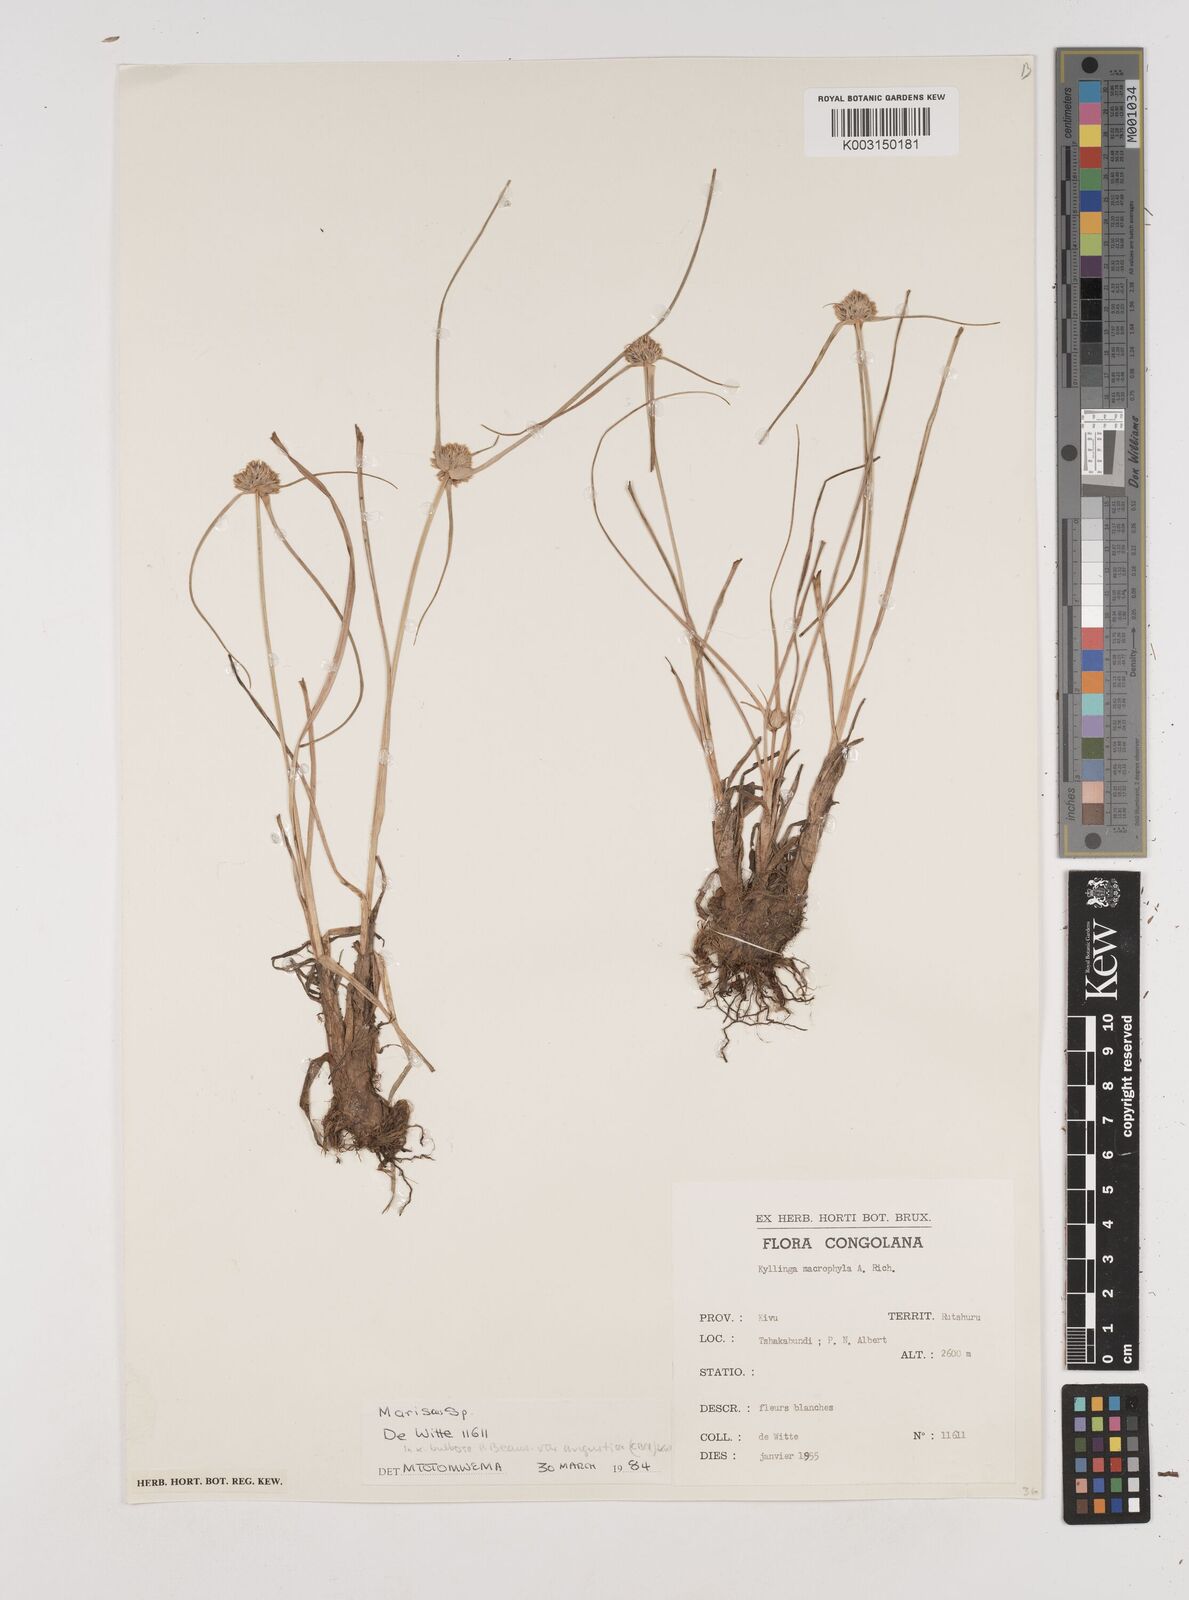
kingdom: Plantae
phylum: Tracheophyta
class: Liliopsida
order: Poales
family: Cyperaceae
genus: Cyperus
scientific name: Cyperus
